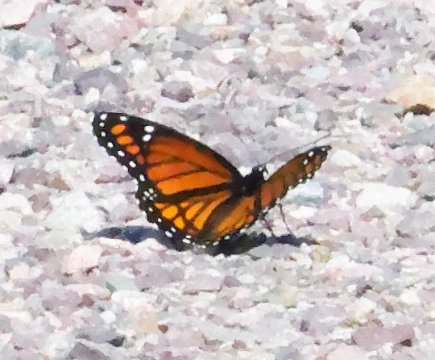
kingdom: Animalia
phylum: Arthropoda
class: Insecta
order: Lepidoptera
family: Nymphalidae
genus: Limenitis
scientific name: Limenitis archippus
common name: Viceroy
